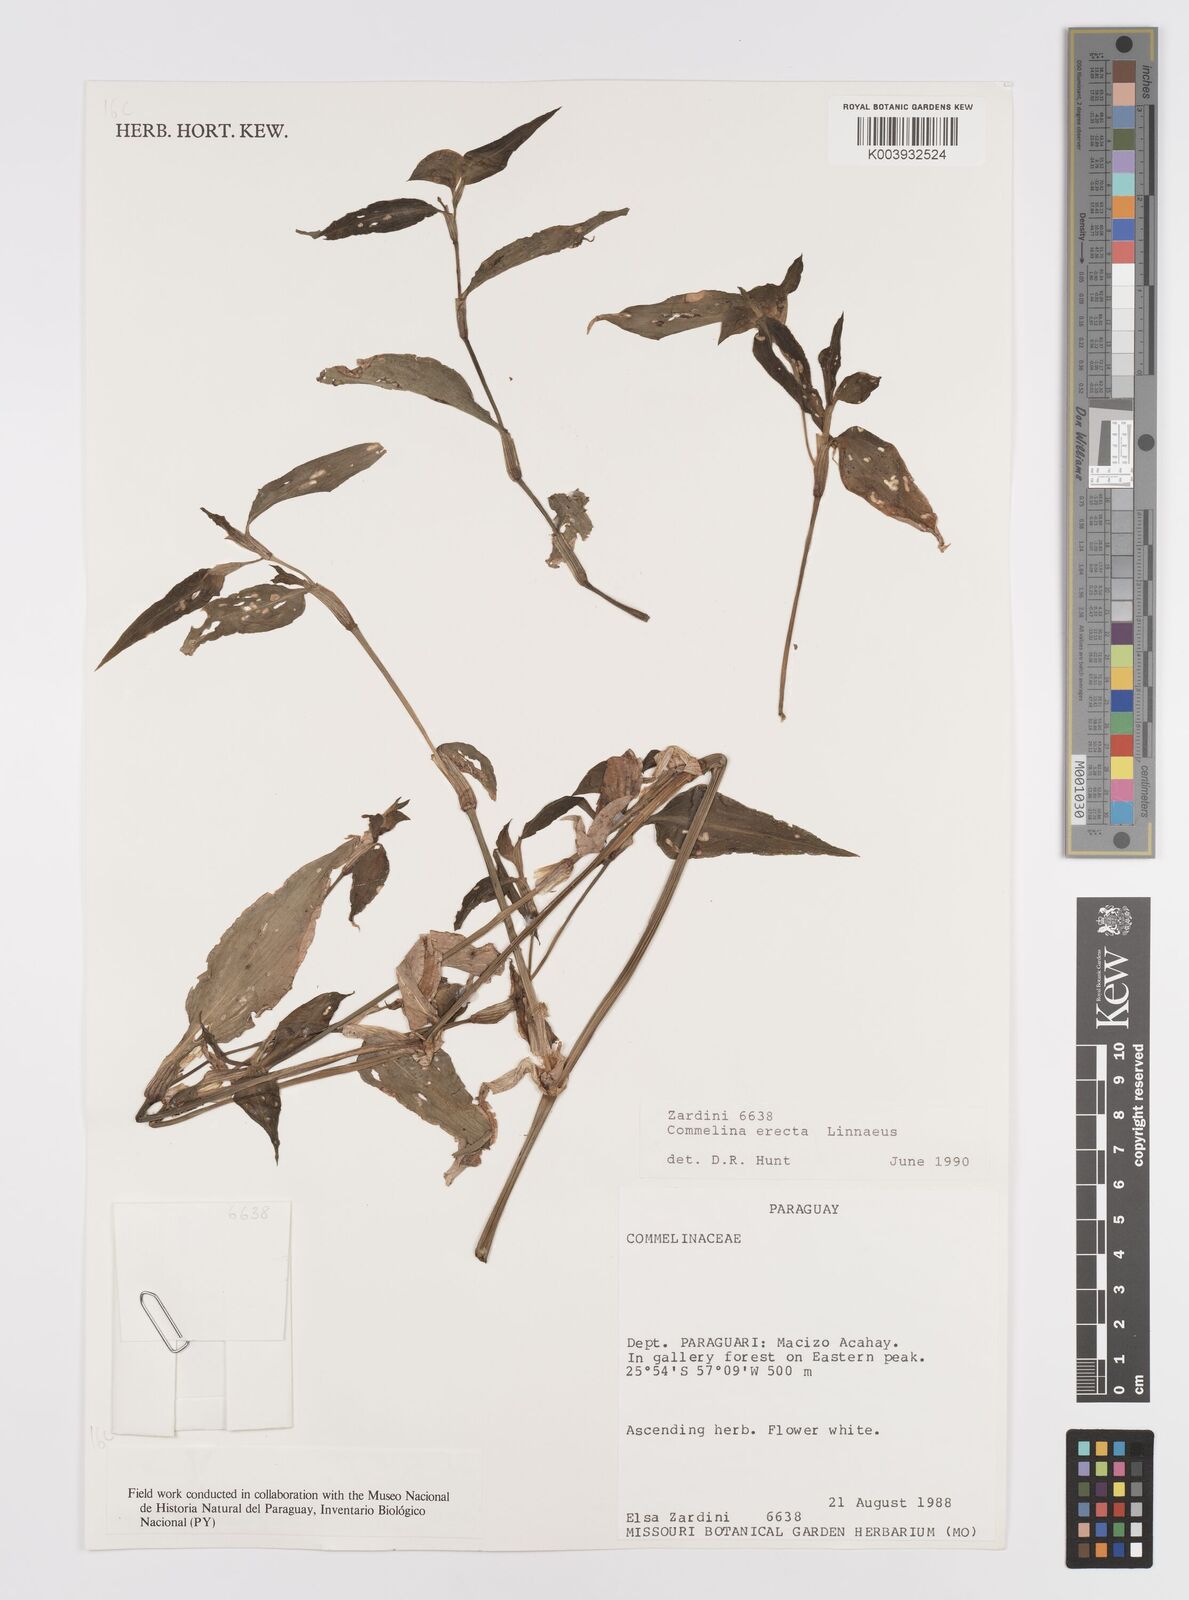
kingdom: Plantae
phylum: Tracheophyta
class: Liliopsida
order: Commelinales
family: Commelinaceae
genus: Commelina
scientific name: Commelina erecta
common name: Blousel blommetjie
